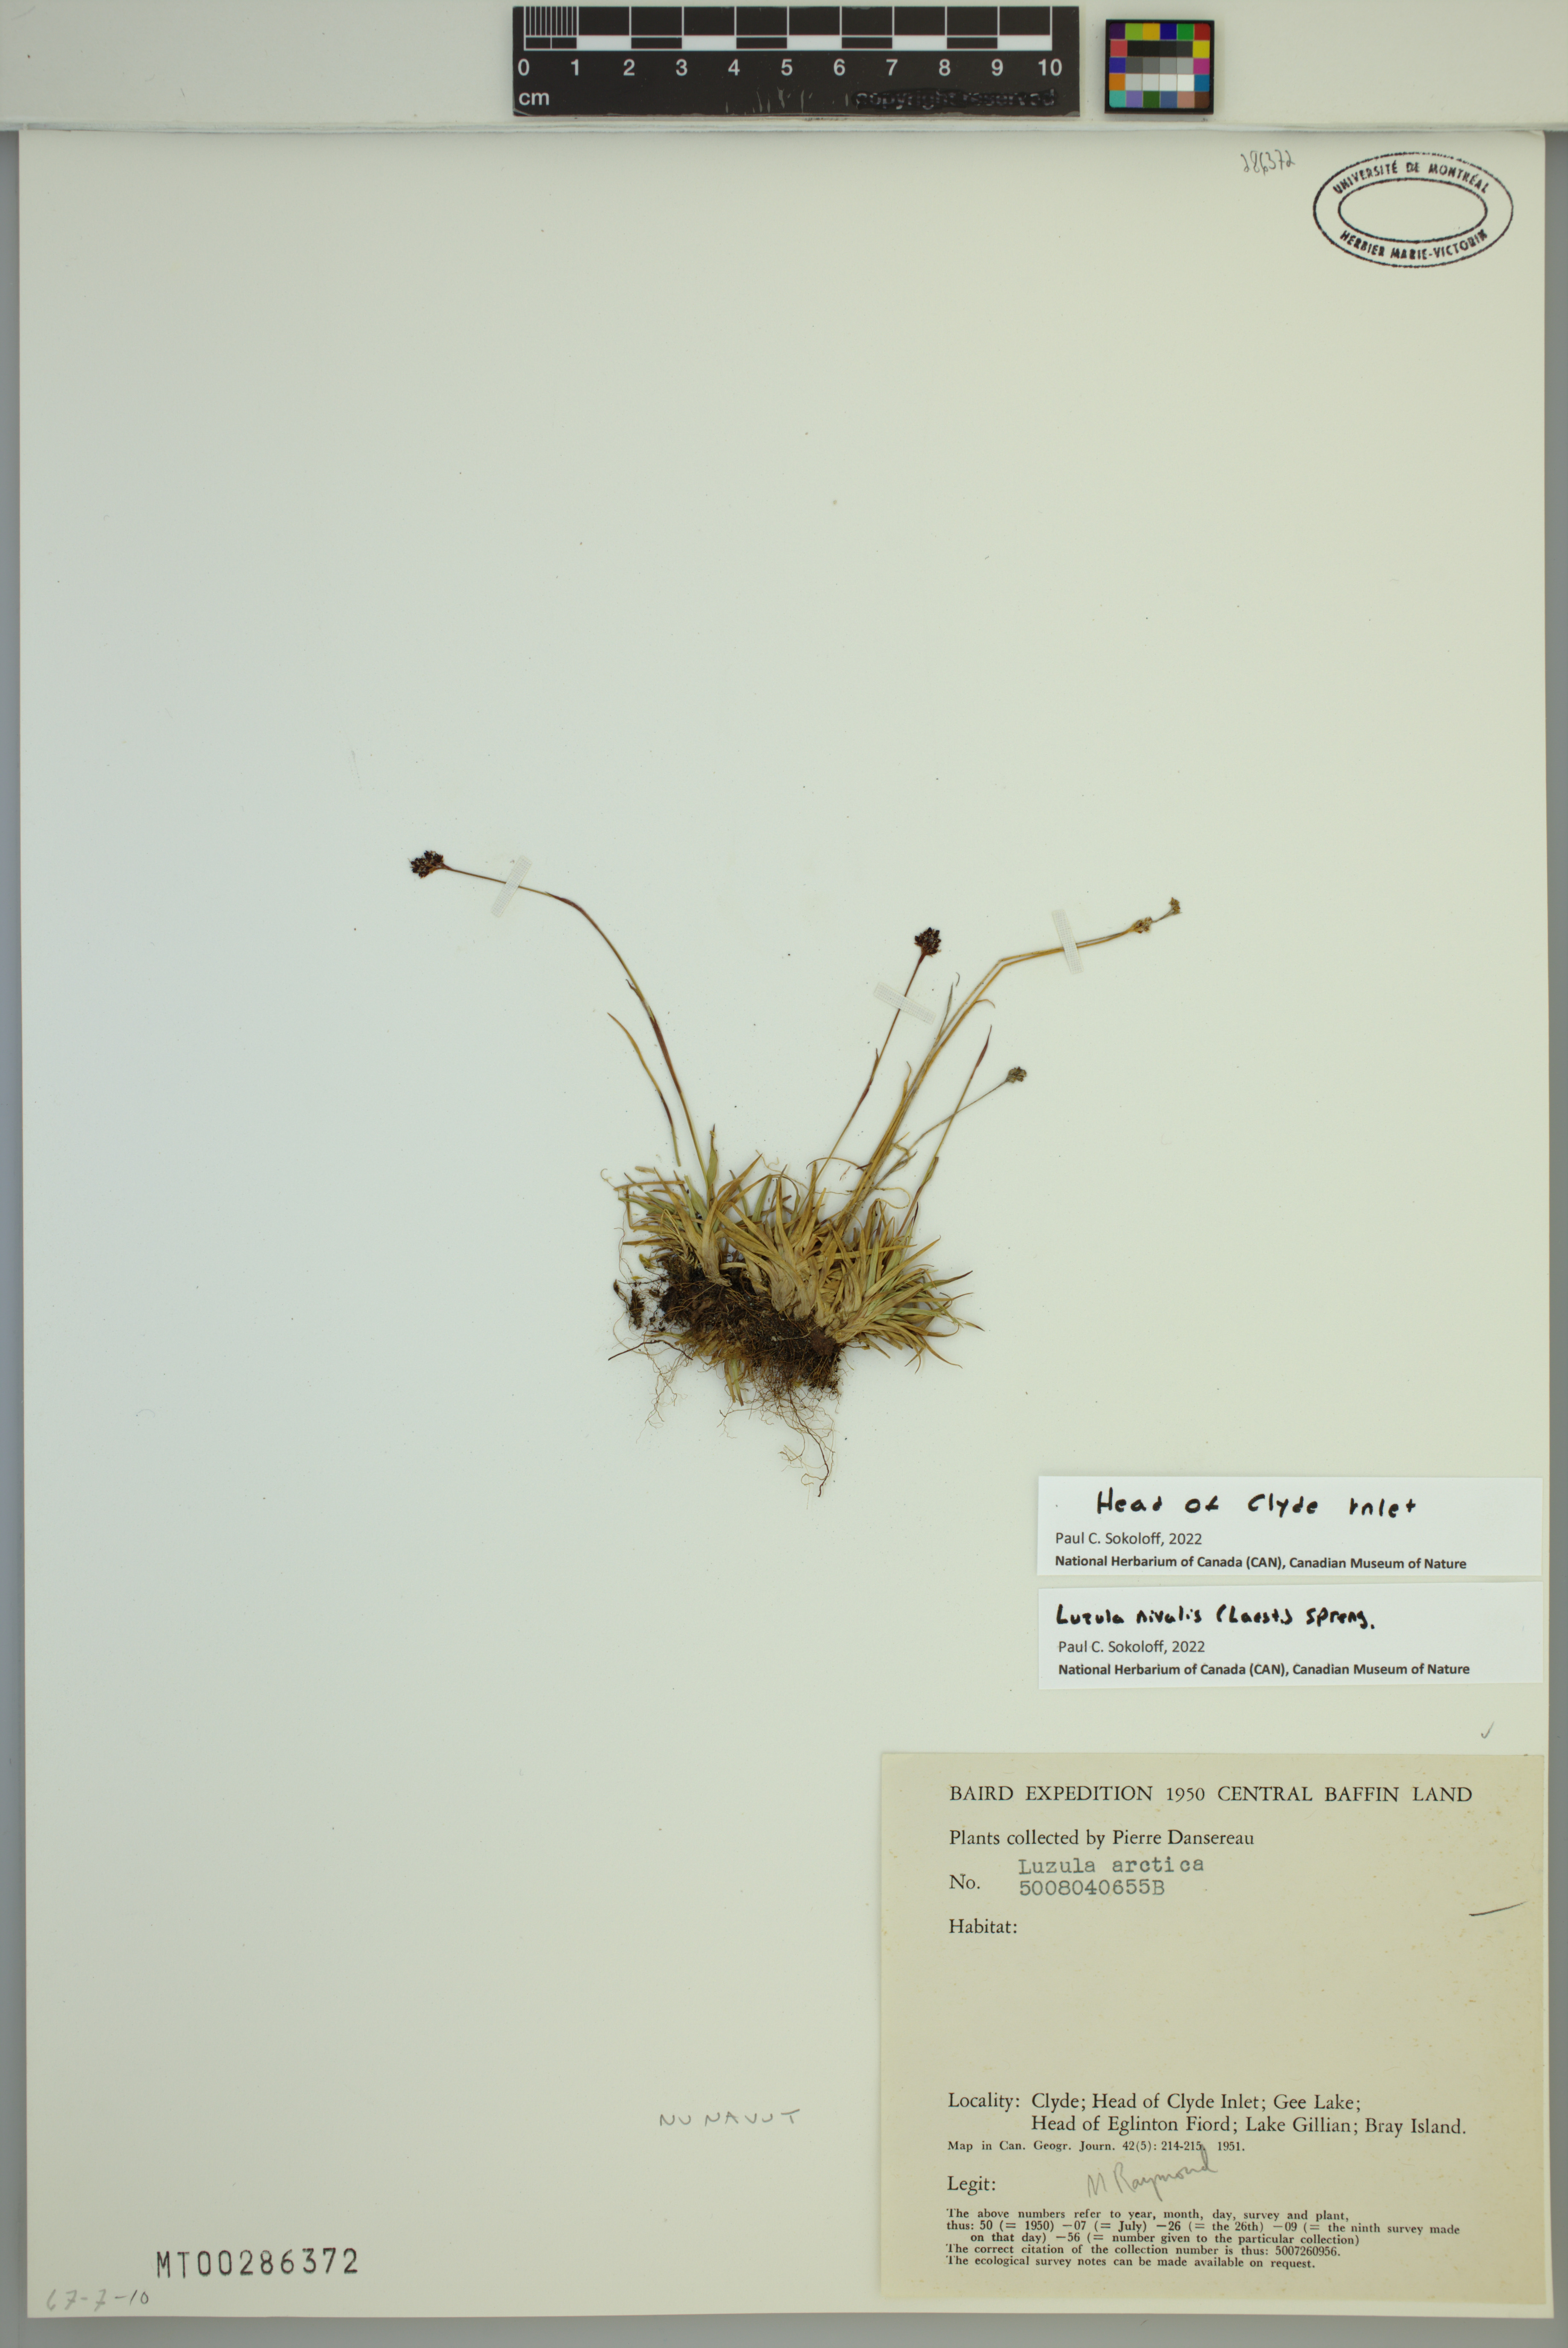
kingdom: Plantae
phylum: Tracheophyta
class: Liliopsida
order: Poales
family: Juncaceae
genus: Luzula
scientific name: Luzula nivalis
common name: Arctic woodrush
